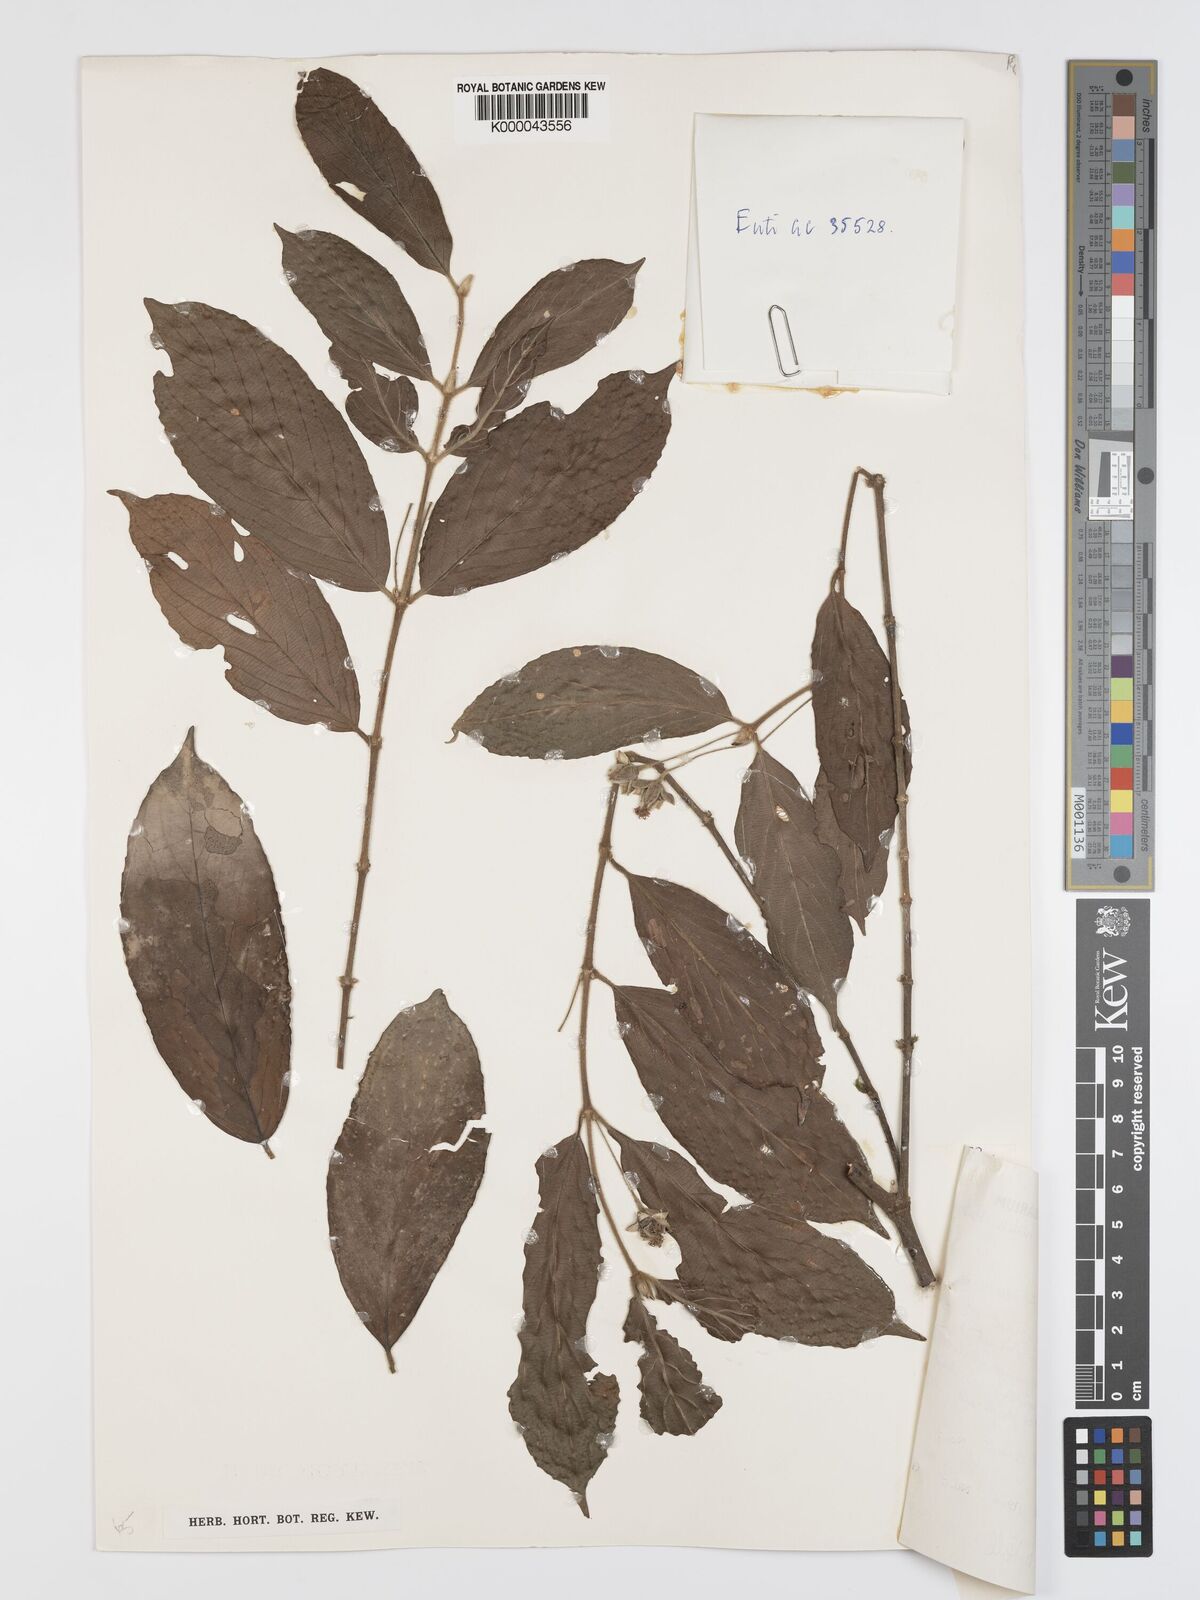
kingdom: Plantae
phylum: Tracheophyta
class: Magnoliopsida
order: Malpighiales
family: Rhizophoraceae
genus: Cassipourea
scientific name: Cassipourea
